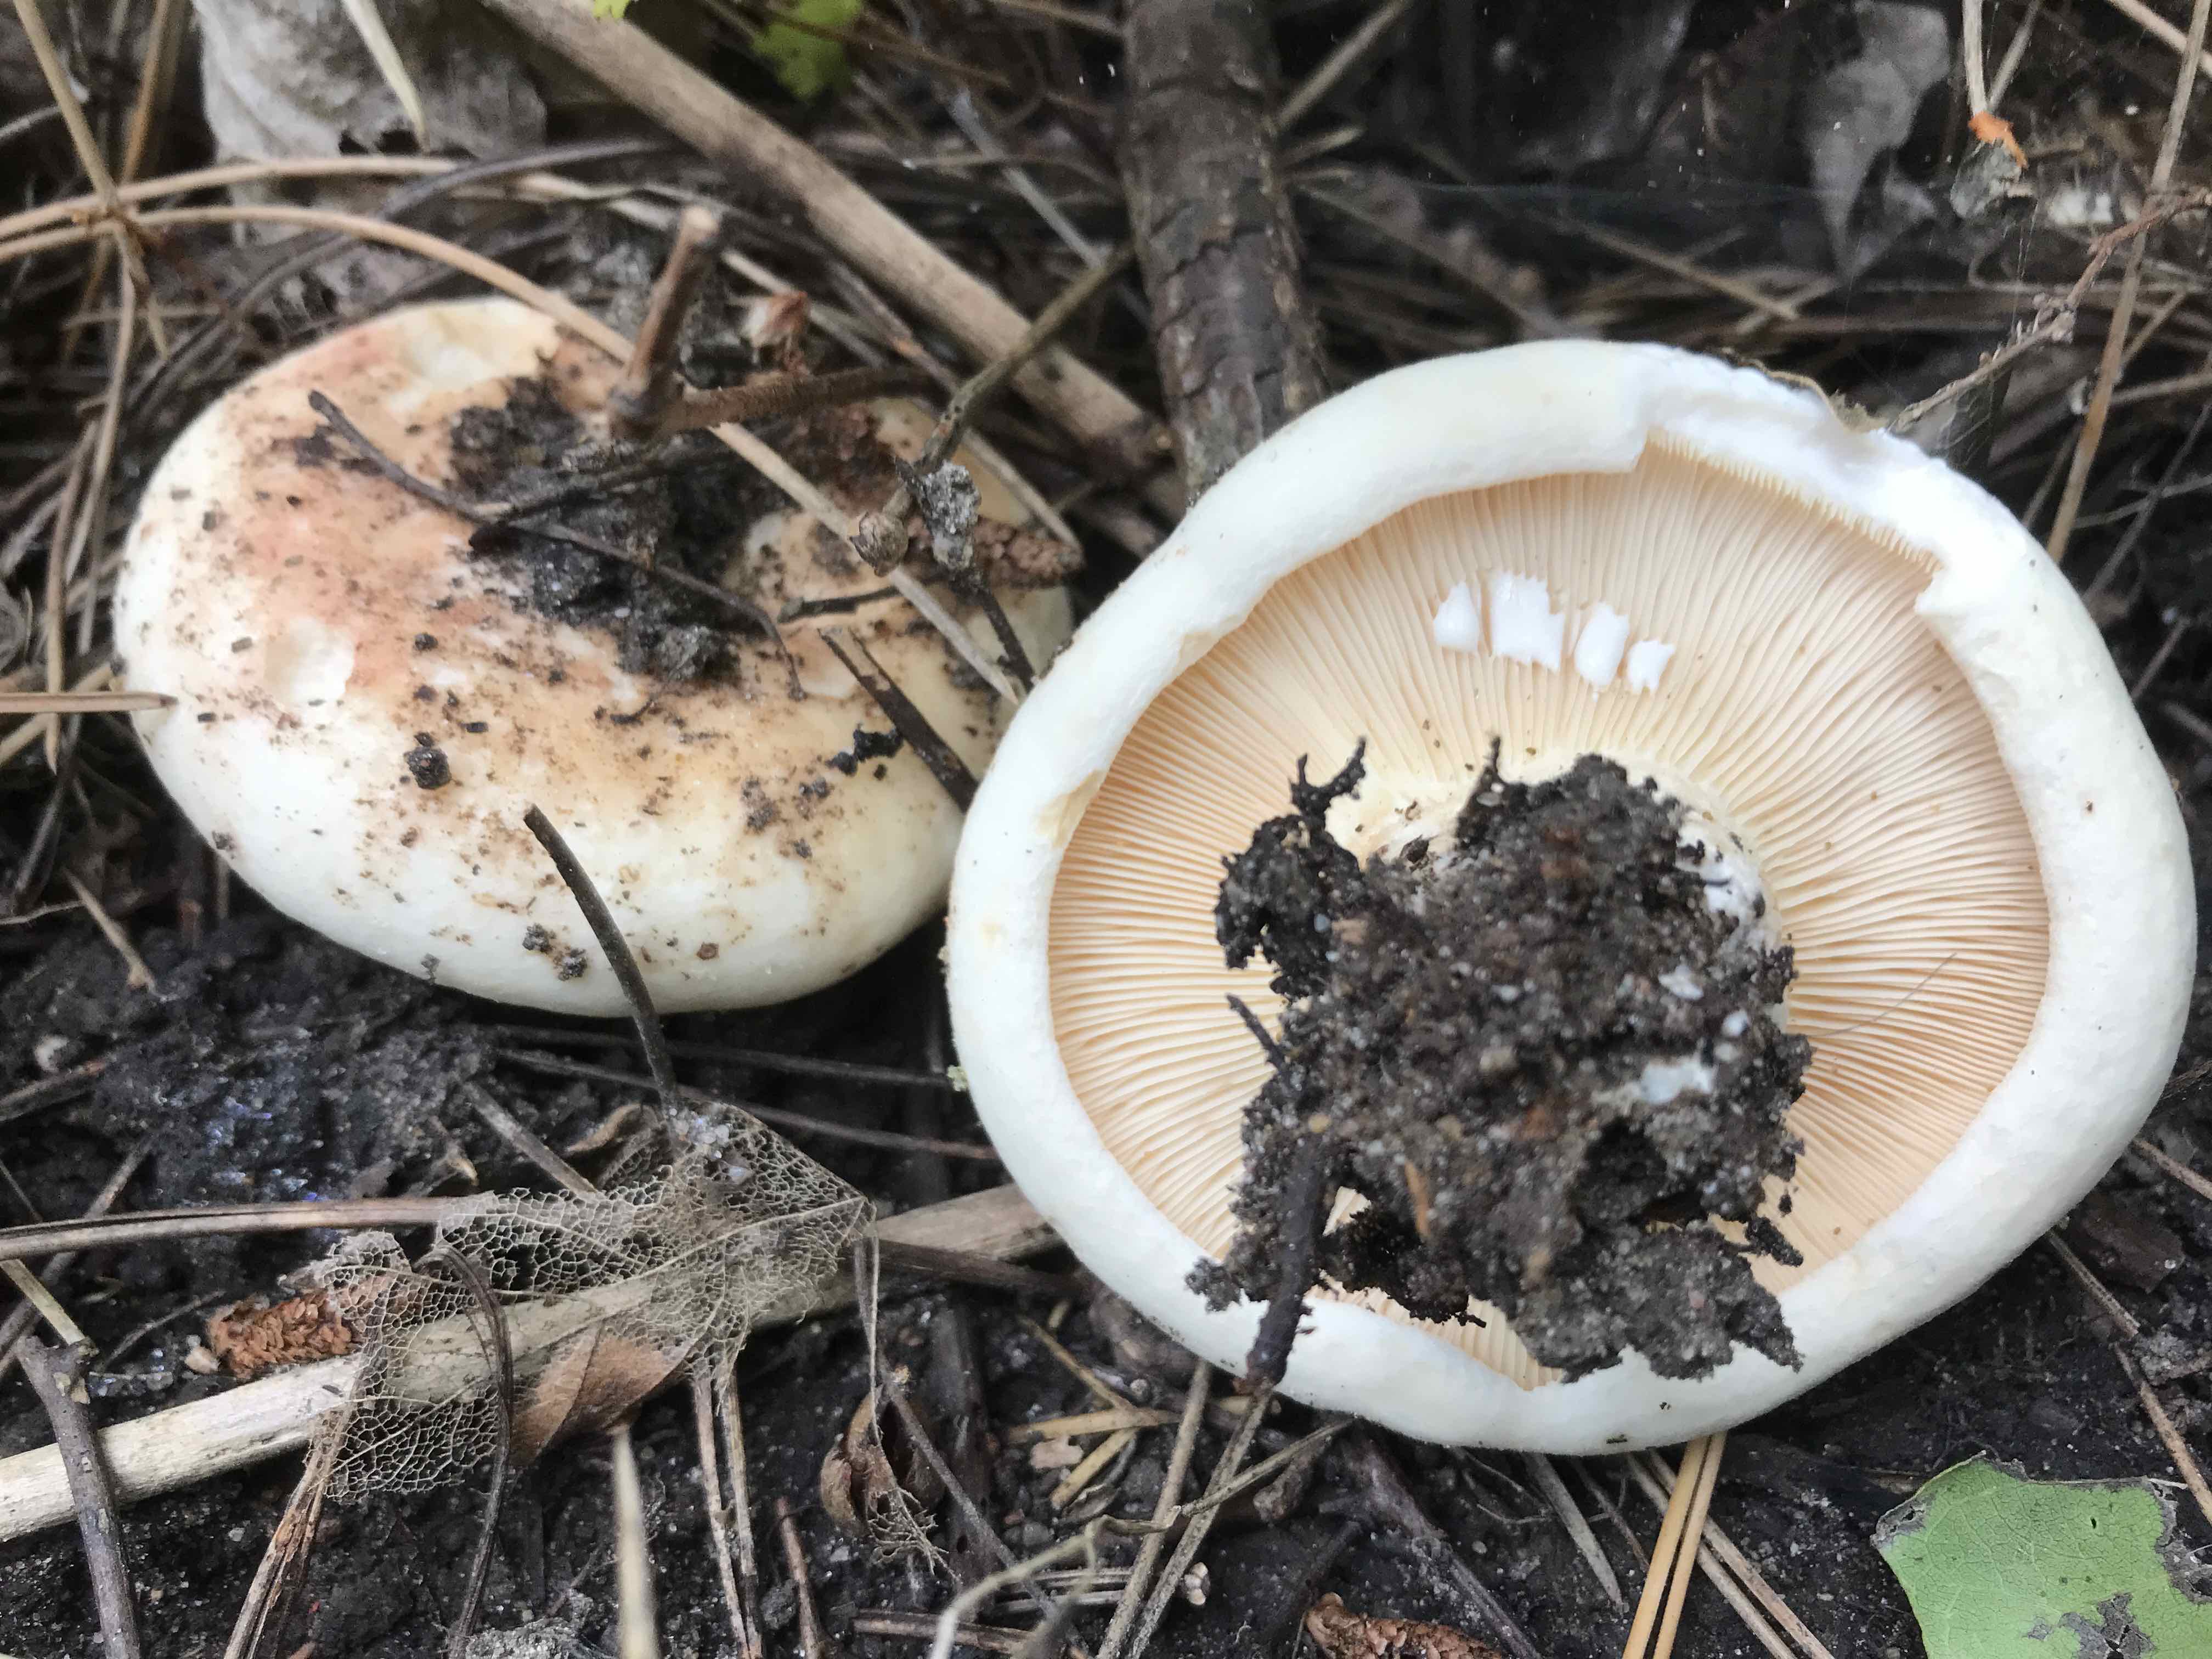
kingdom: Fungi
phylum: Basidiomycota
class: Agaricomycetes
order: Russulales
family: Russulaceae
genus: Lactarius
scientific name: Lactarius controversus
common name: rosabladet mælkehat
